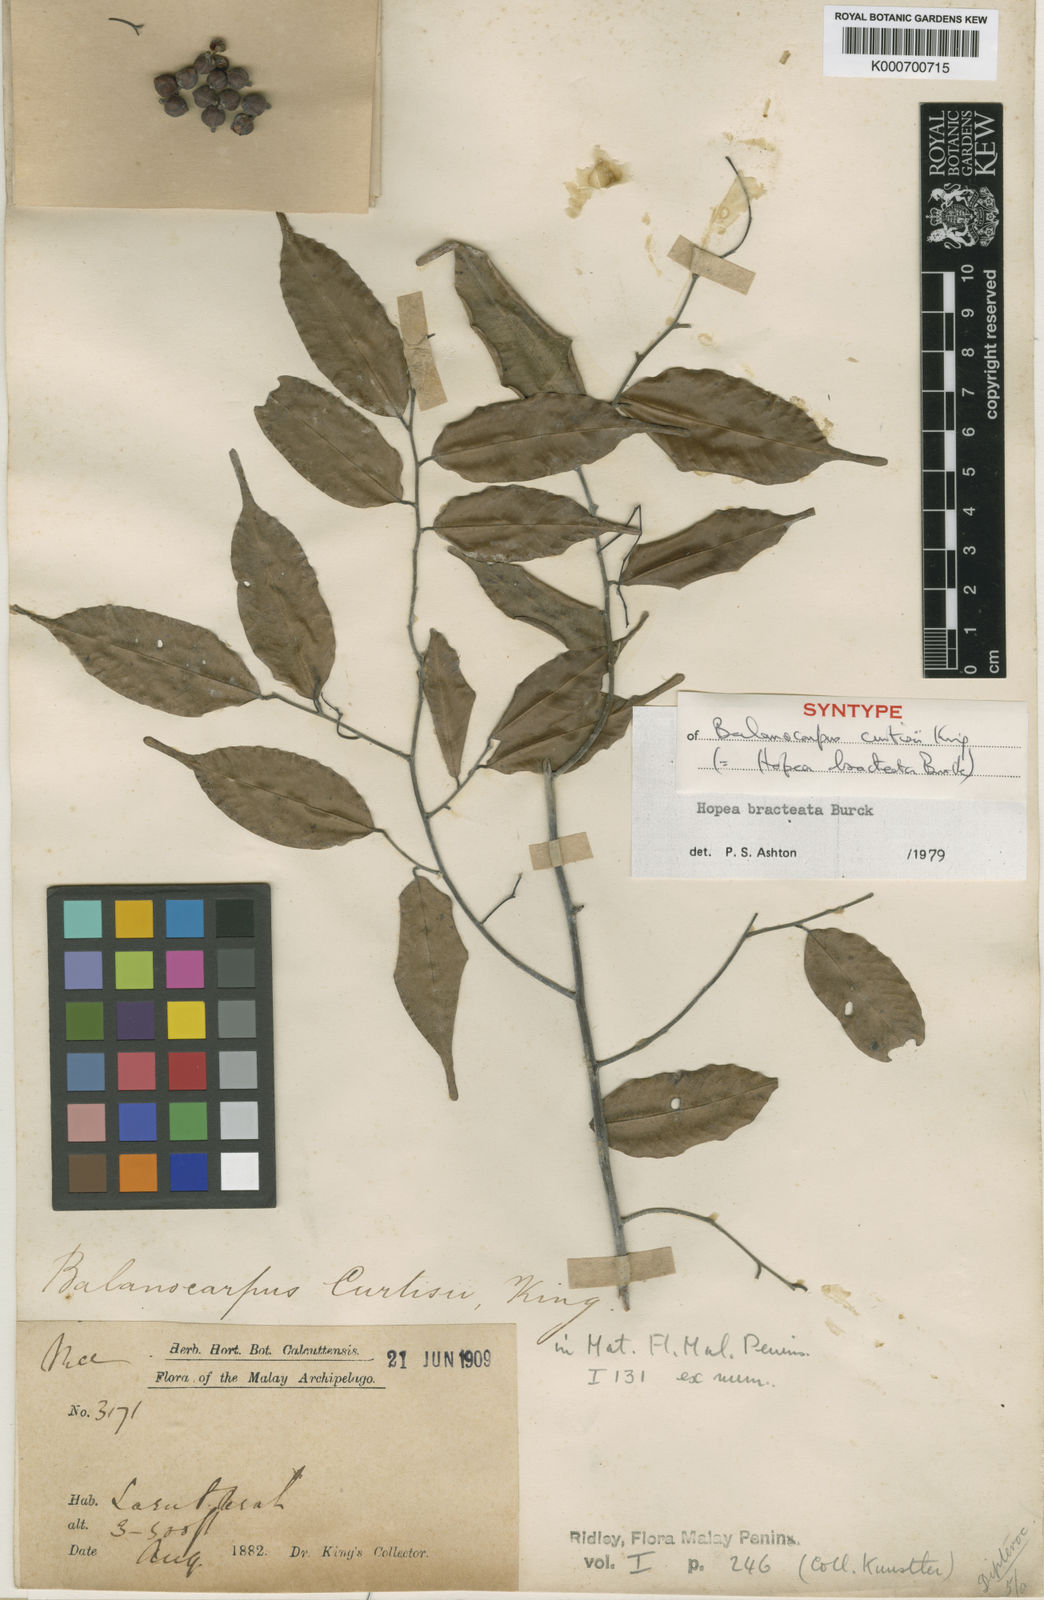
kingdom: Plantae
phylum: Tracheophyta
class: Magnoliopsida
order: Malvales
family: Dipterocarpaceae
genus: Hopea
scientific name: Hopea bracteata
